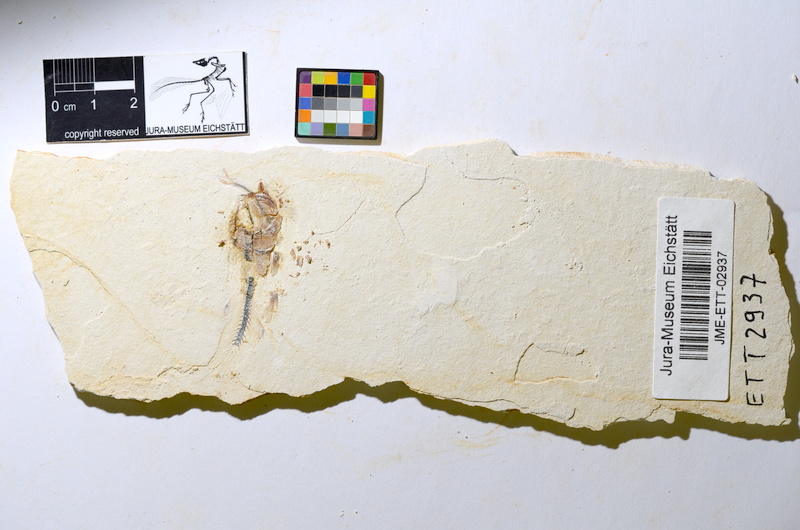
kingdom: Animalia
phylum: Chordata
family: Ascalaboidae
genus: Ebertichthys
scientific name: Ebertichthys ettlingensis
